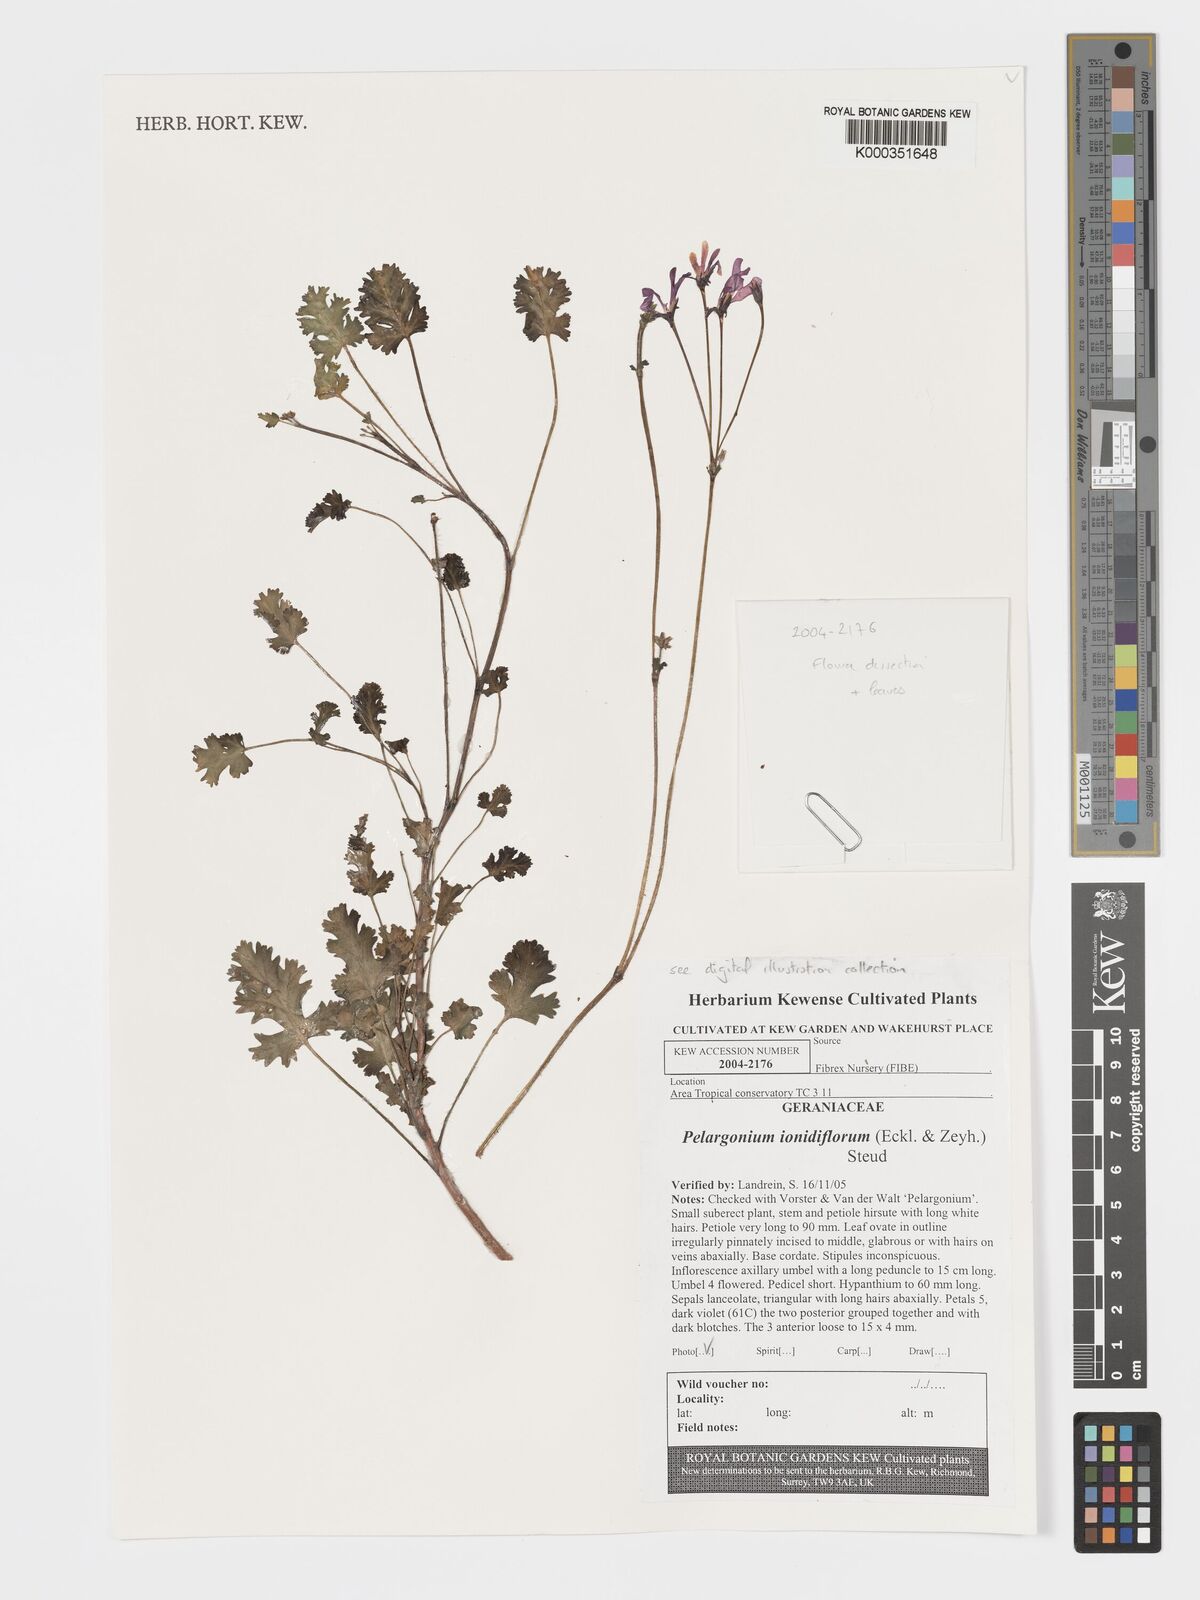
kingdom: Plantae
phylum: Tracheophyta
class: Magnoliopsida
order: Geraniales
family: Geraniaceae
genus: Pelargonium
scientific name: Pelargonium ionidiflorum
